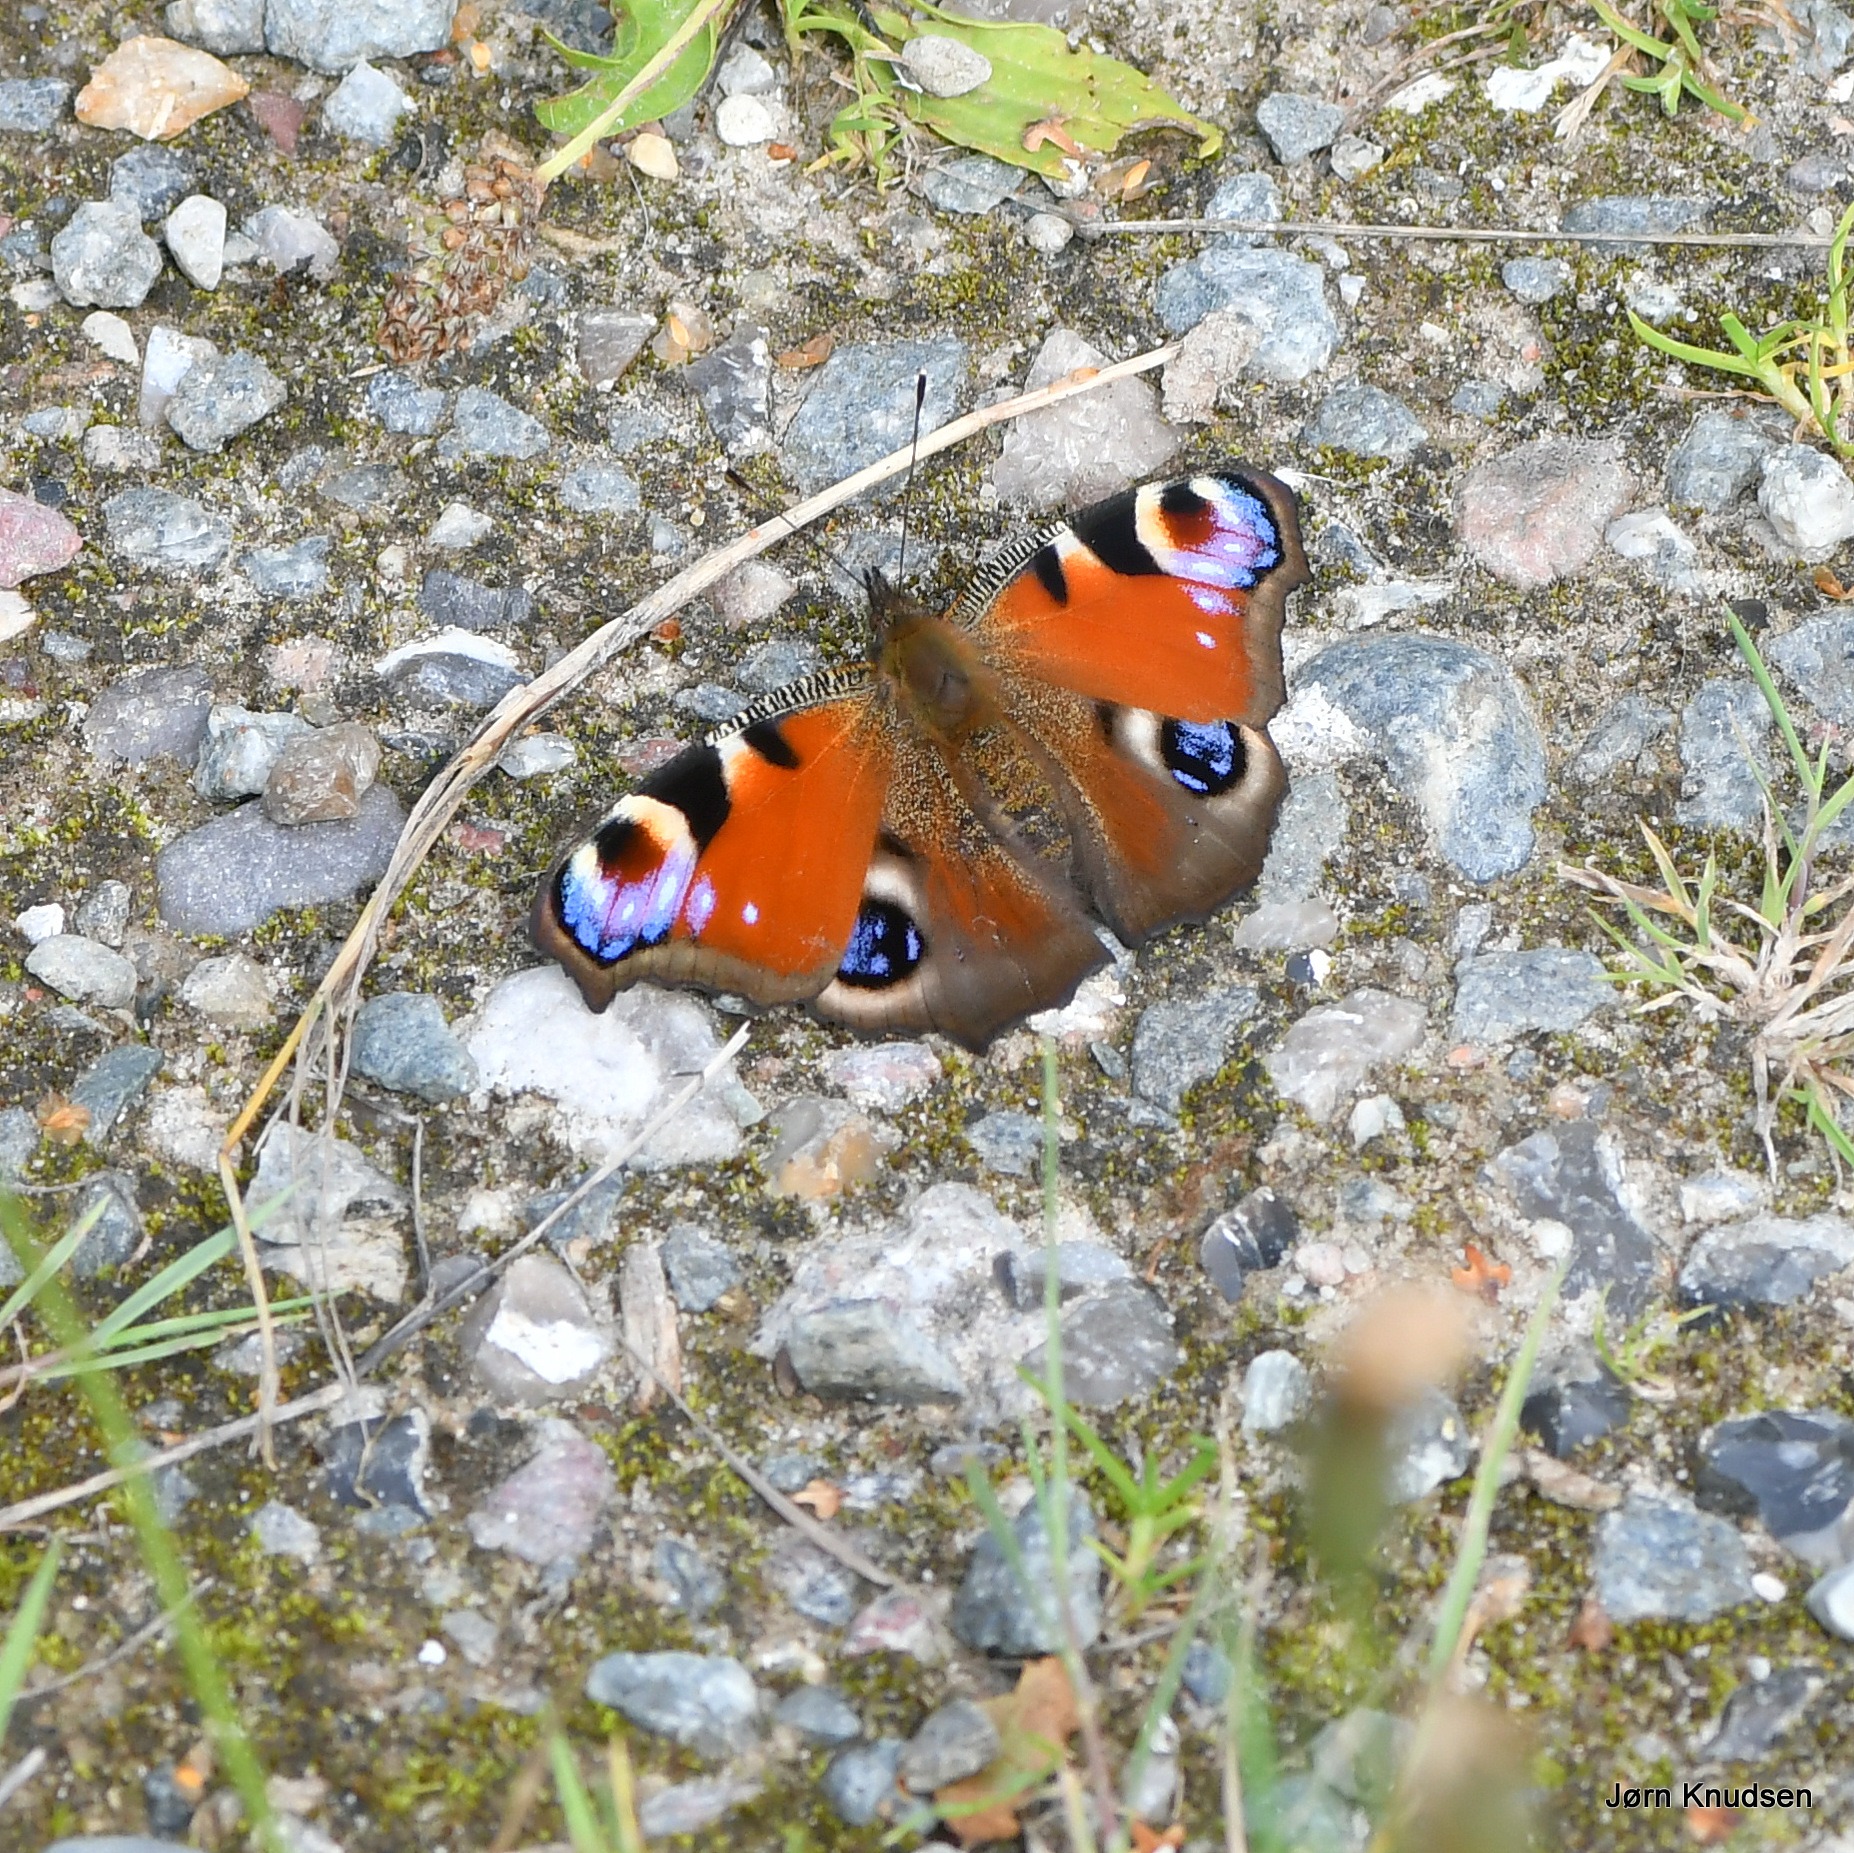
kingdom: Animalia
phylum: Arthropoda
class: Insecta
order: Lepidoptera
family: Nymphalidae
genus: Aglais
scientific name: Aglais io
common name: Dagpåfugleøje
